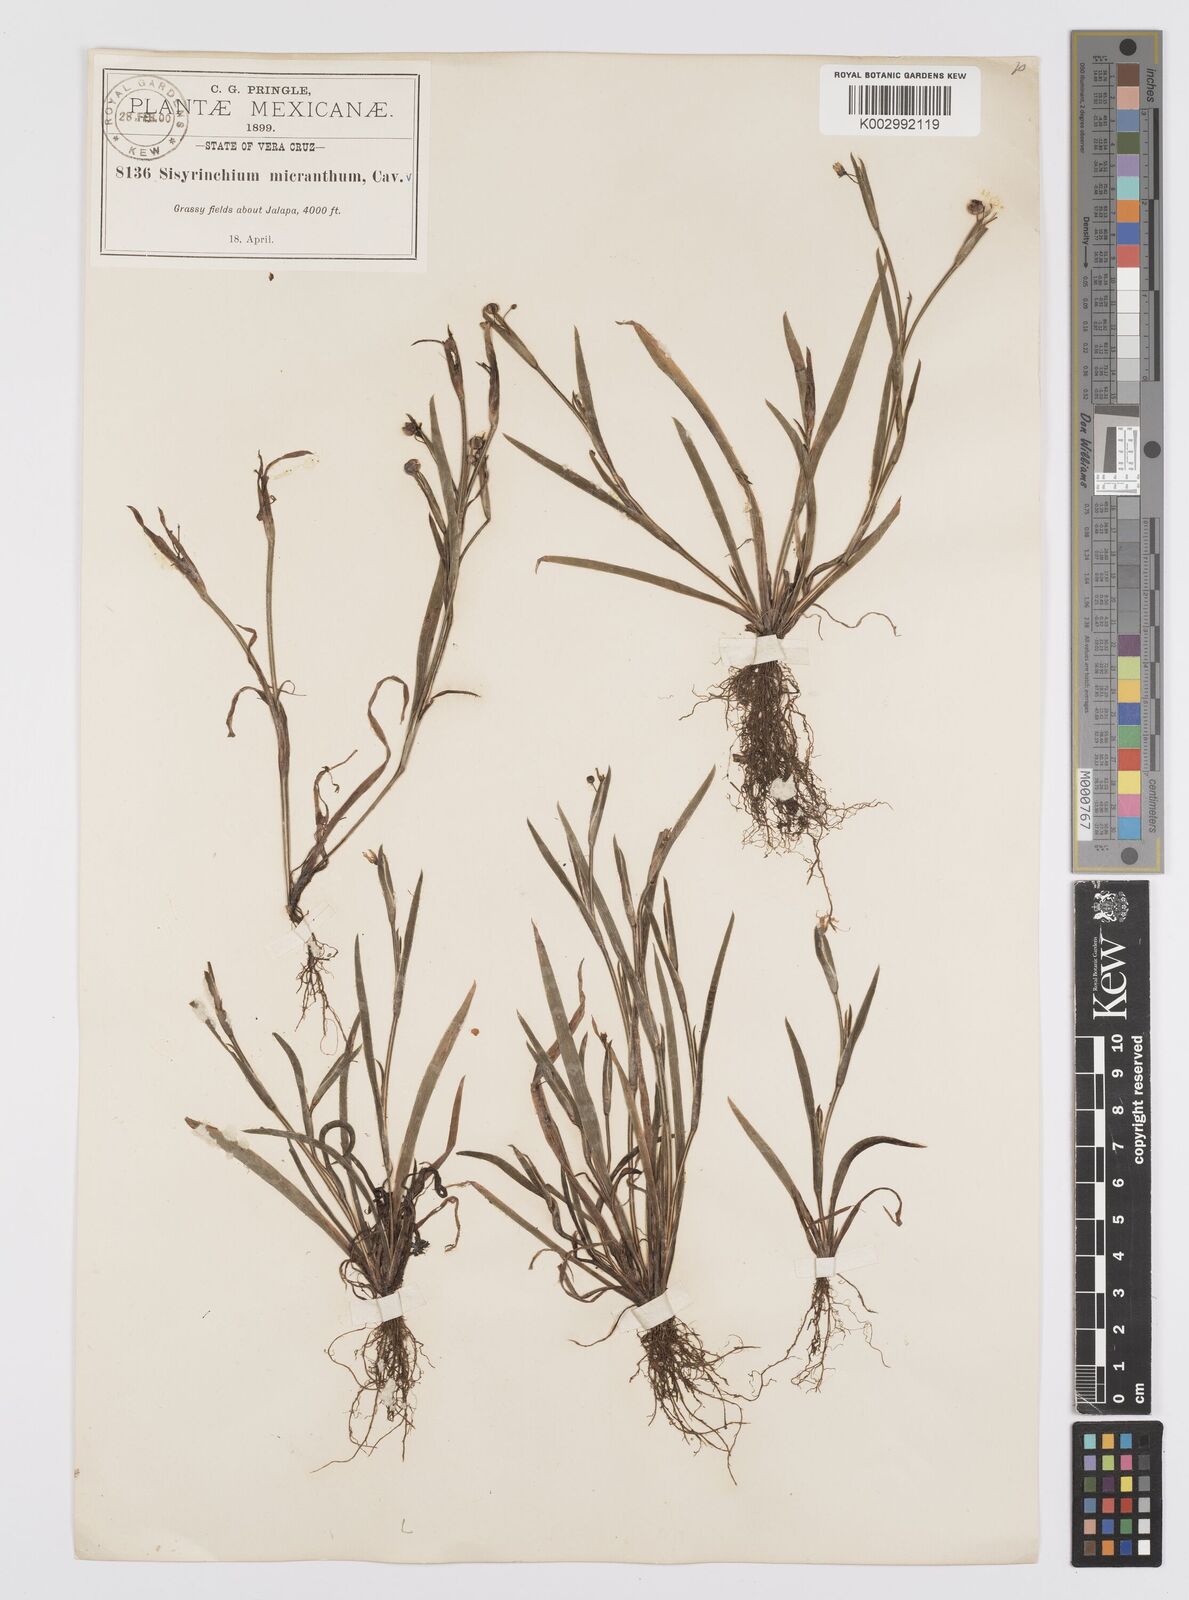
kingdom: Plantae
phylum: Tracheophyta
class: Liliopsida
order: Asparagales
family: Iridaceae
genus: Sisyrinchium
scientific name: Sisyrinchium micranthum
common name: Bermuda pigroot
